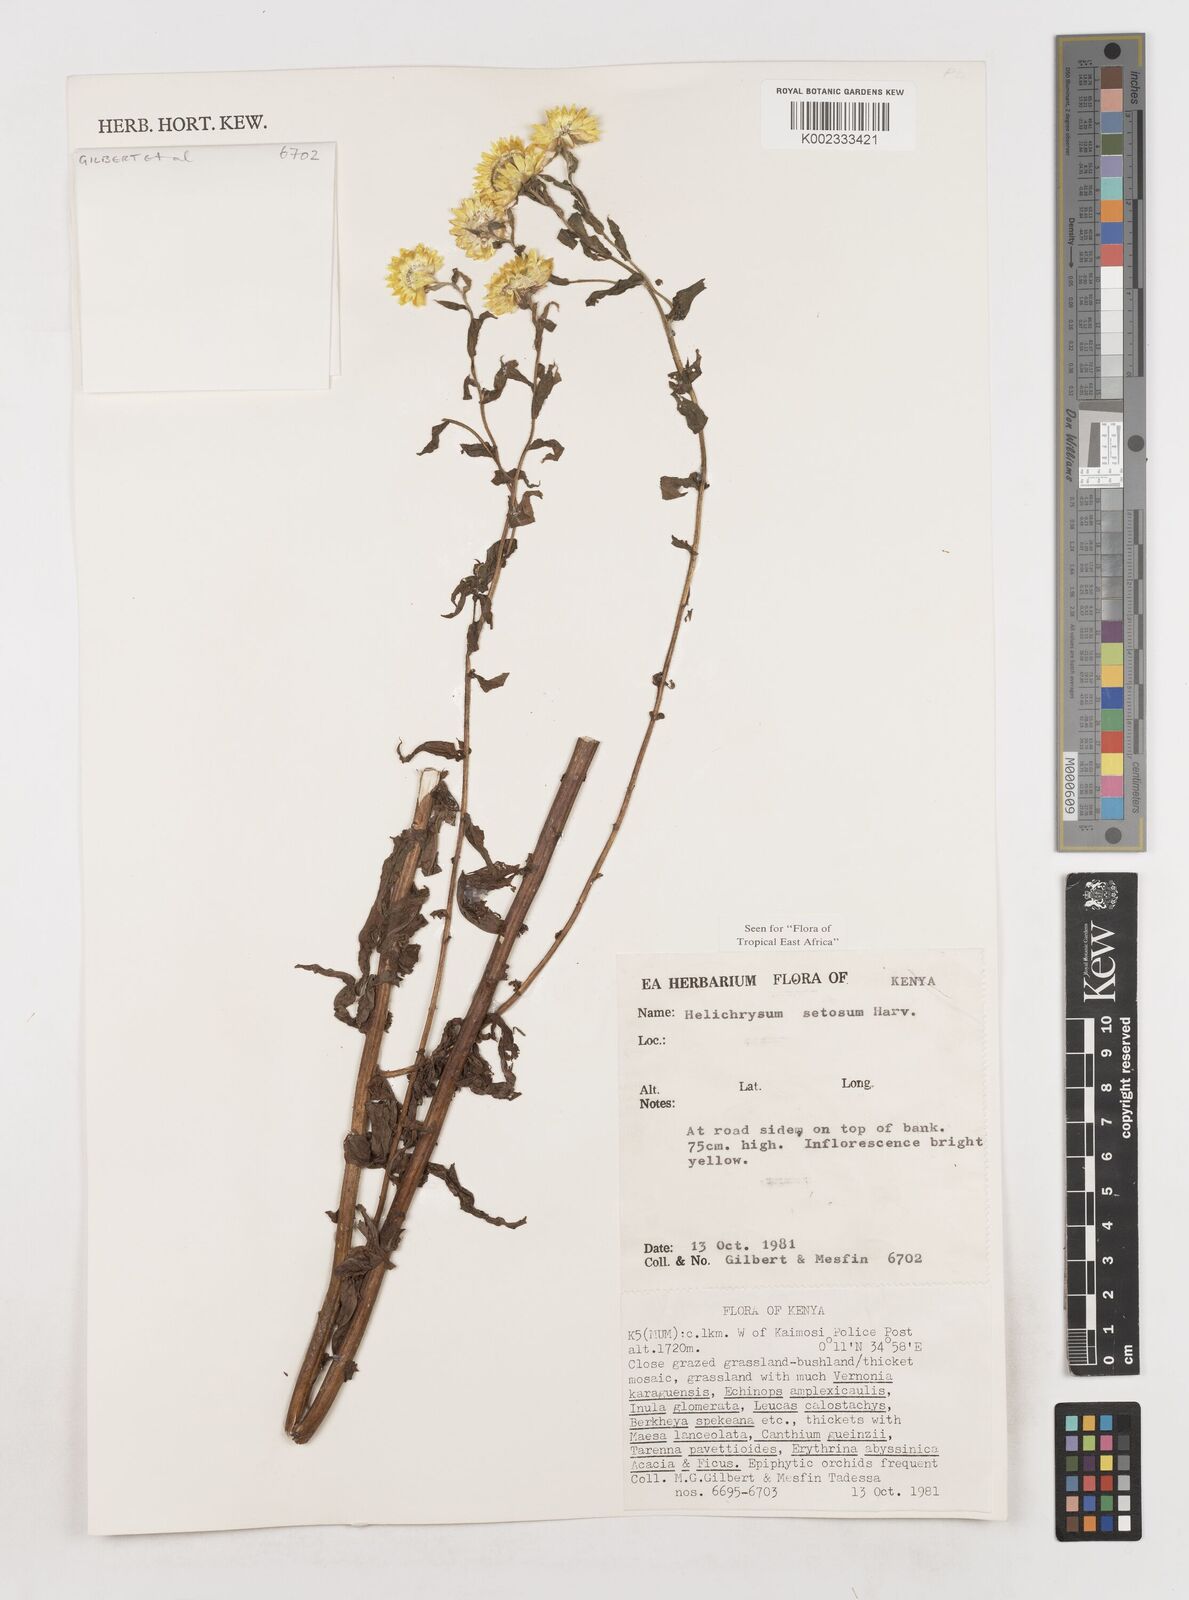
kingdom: Plantae
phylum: Tracheophyta
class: Magnoliopsida
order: Asterales
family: Asteraceae
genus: Helichrysum
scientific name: Helichrysum setosum
